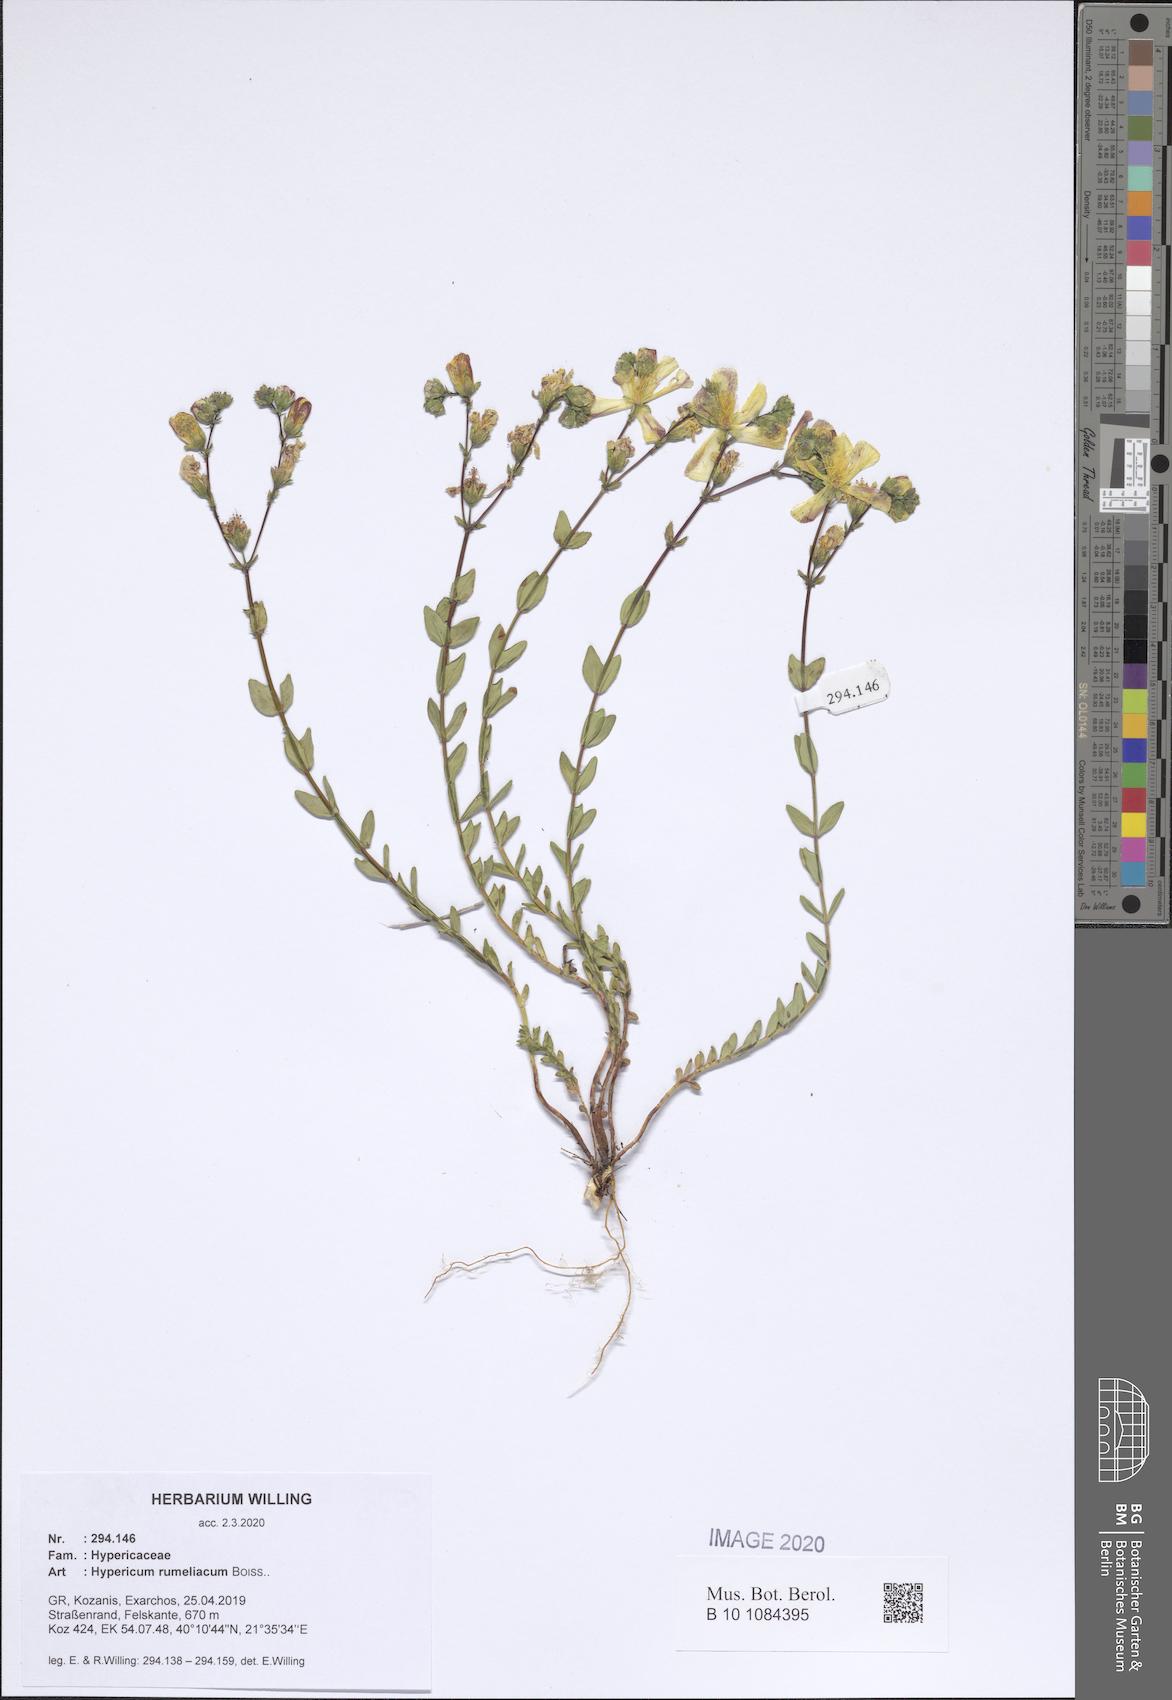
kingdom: Plantae
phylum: Tracheophyta
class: Magnoliopsida
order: Malpighiales
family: Hypericaceae
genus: Hypericum
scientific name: Hypericum rumeliacum
